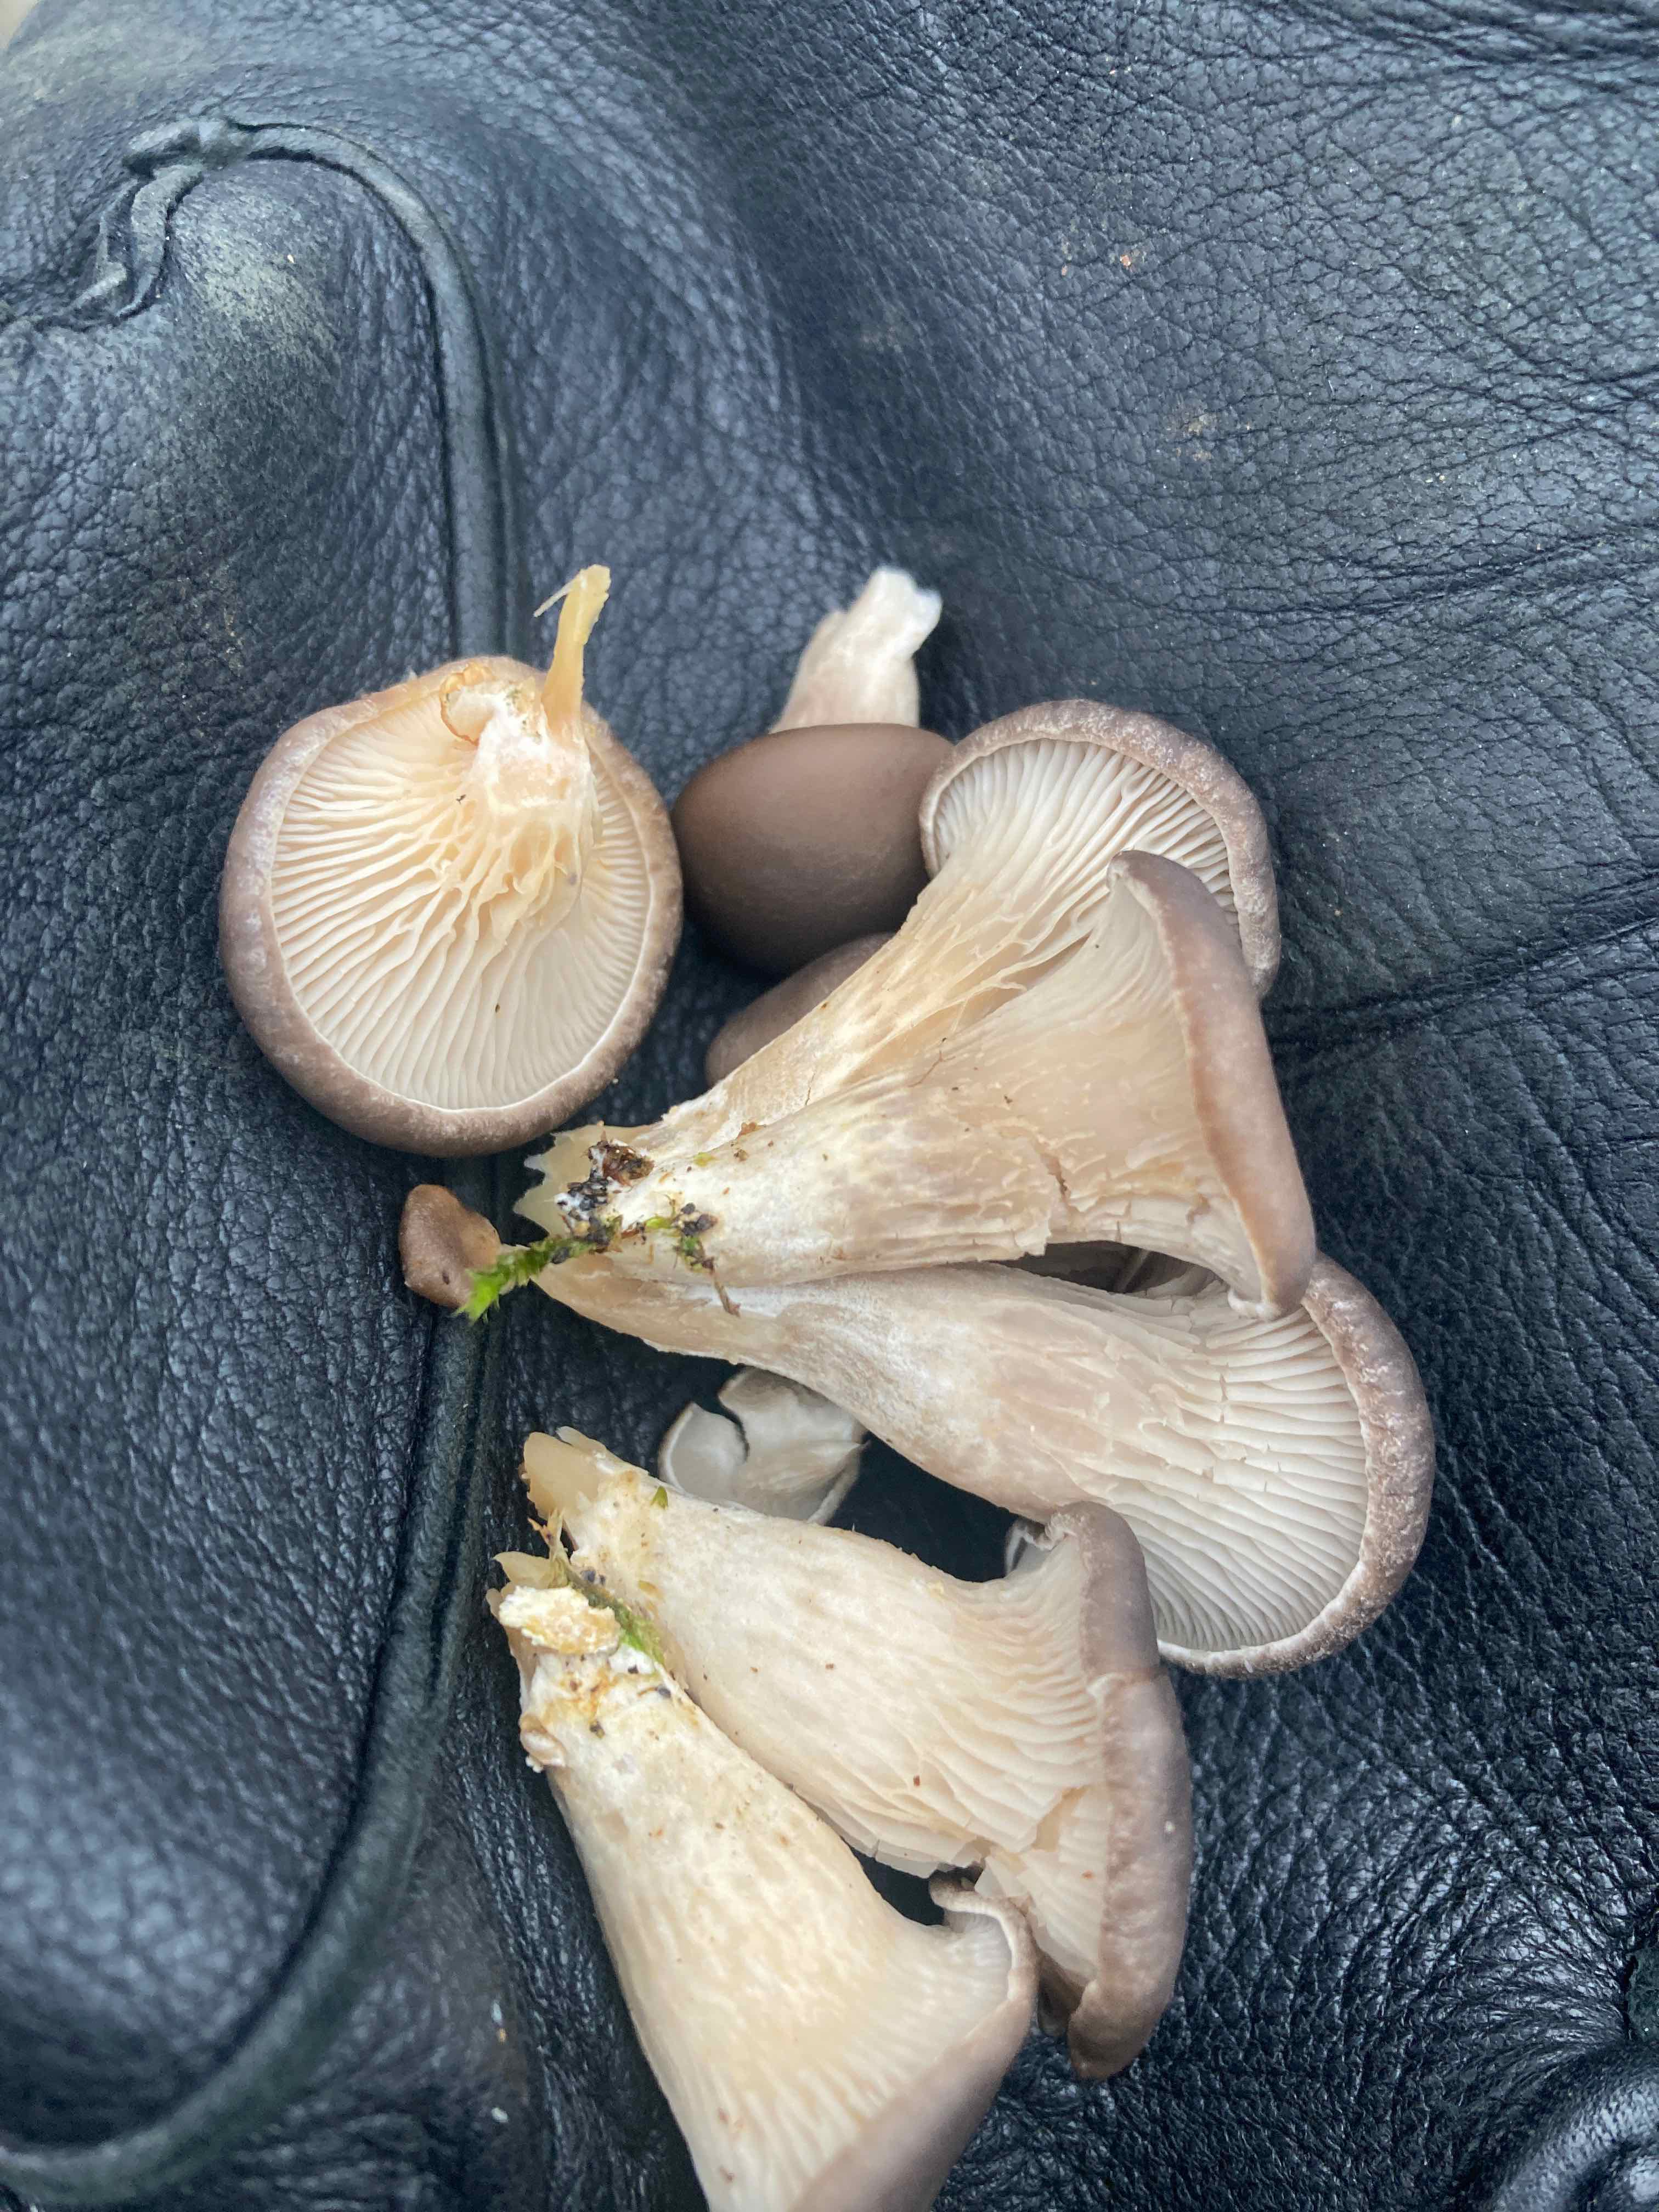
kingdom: Fungi
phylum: Basidiomycota
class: Agaricomycetes
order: Agaricales
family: Pleurotaceae
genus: Pleurotus
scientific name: Pleurotus ostreatus
